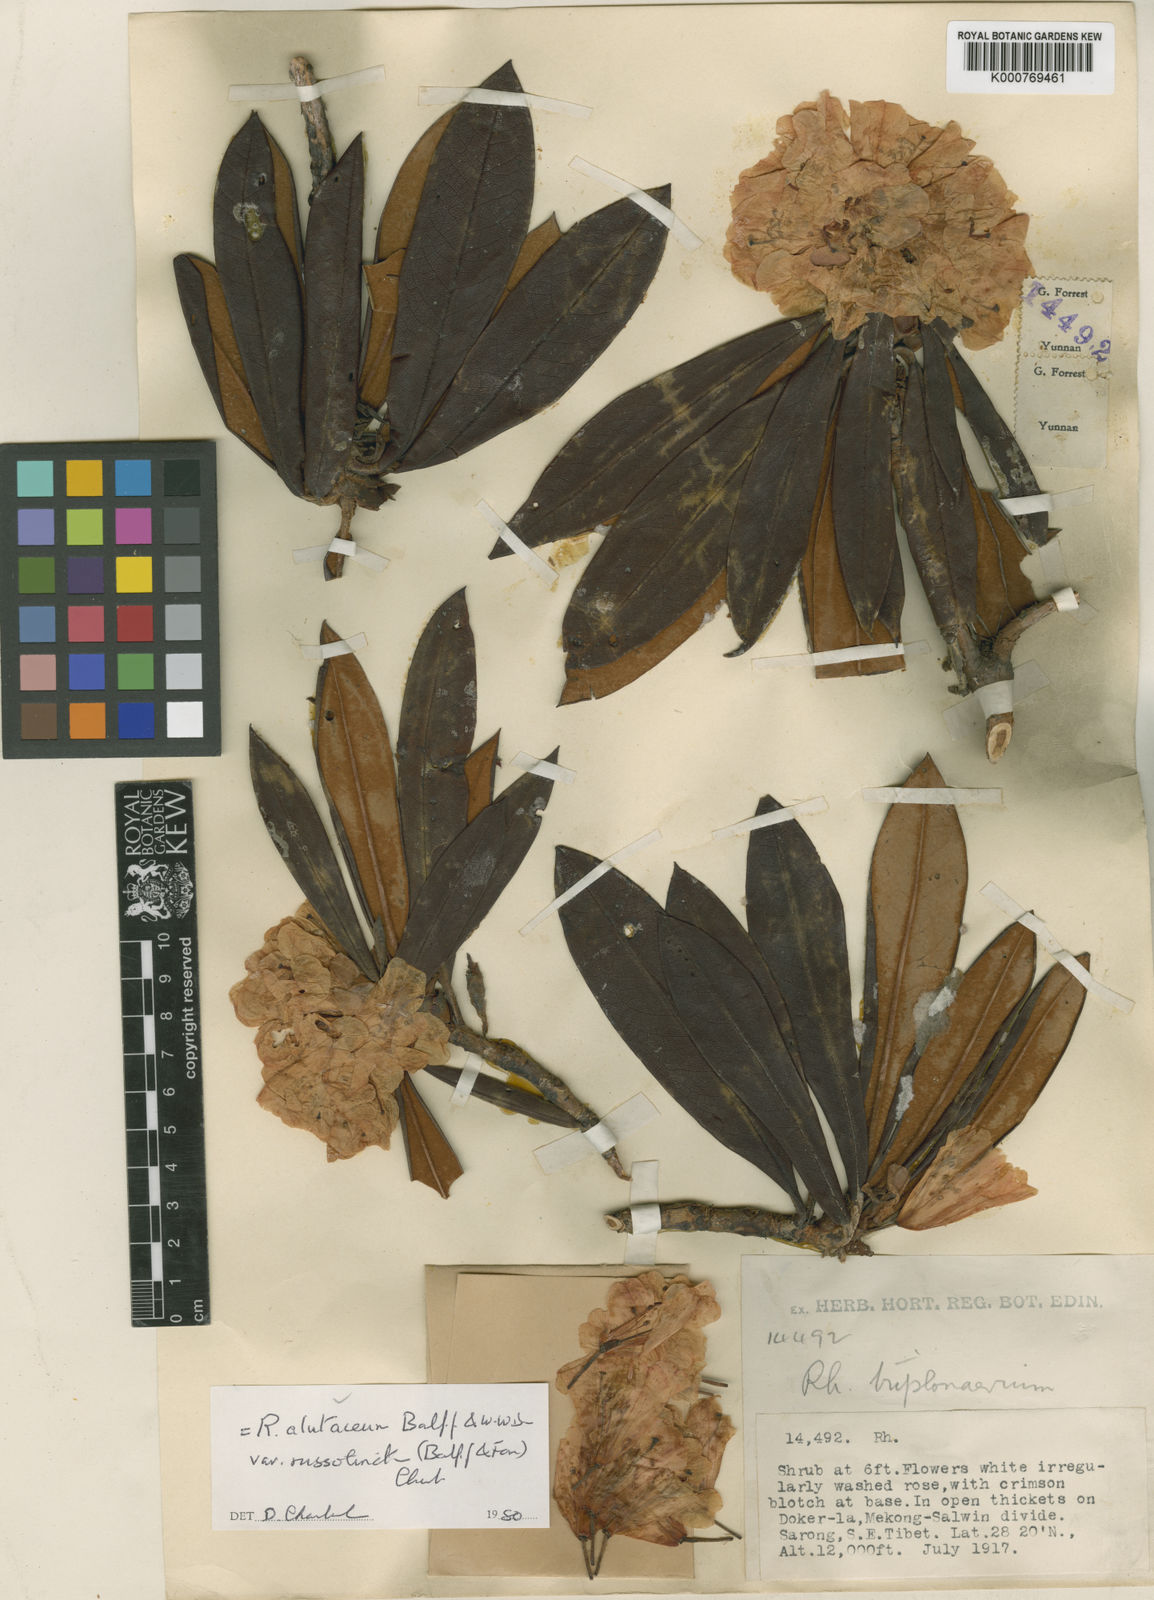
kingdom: Plantae
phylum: Tracheophyta
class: Magnoliopsida
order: Ericales
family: Ericaceae
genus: Rhododendron
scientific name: Rhododendron alutaceum
